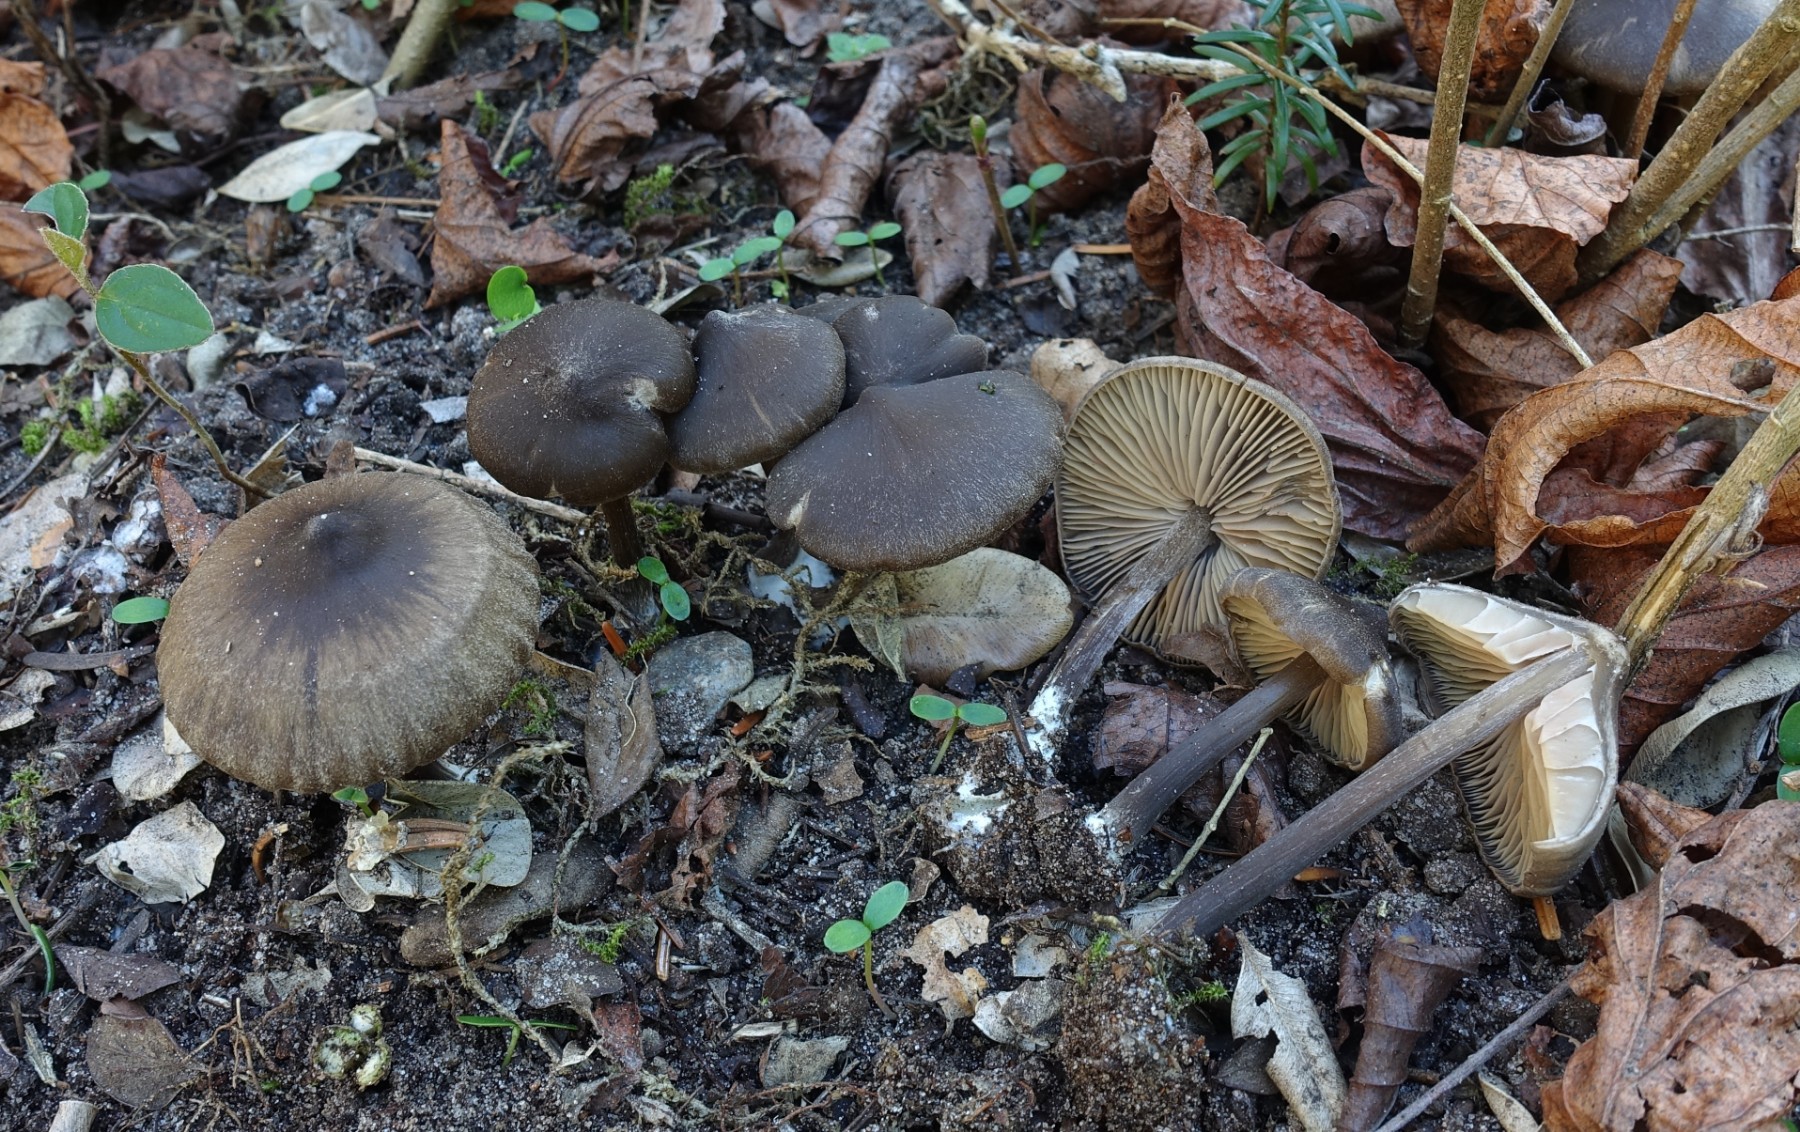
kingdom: Fungi
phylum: Basidiomycota
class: Agaricomycetes
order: Agaricales
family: Entolomataceae
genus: Entoloma
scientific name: Entoloma vernum
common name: vår-rødblad
